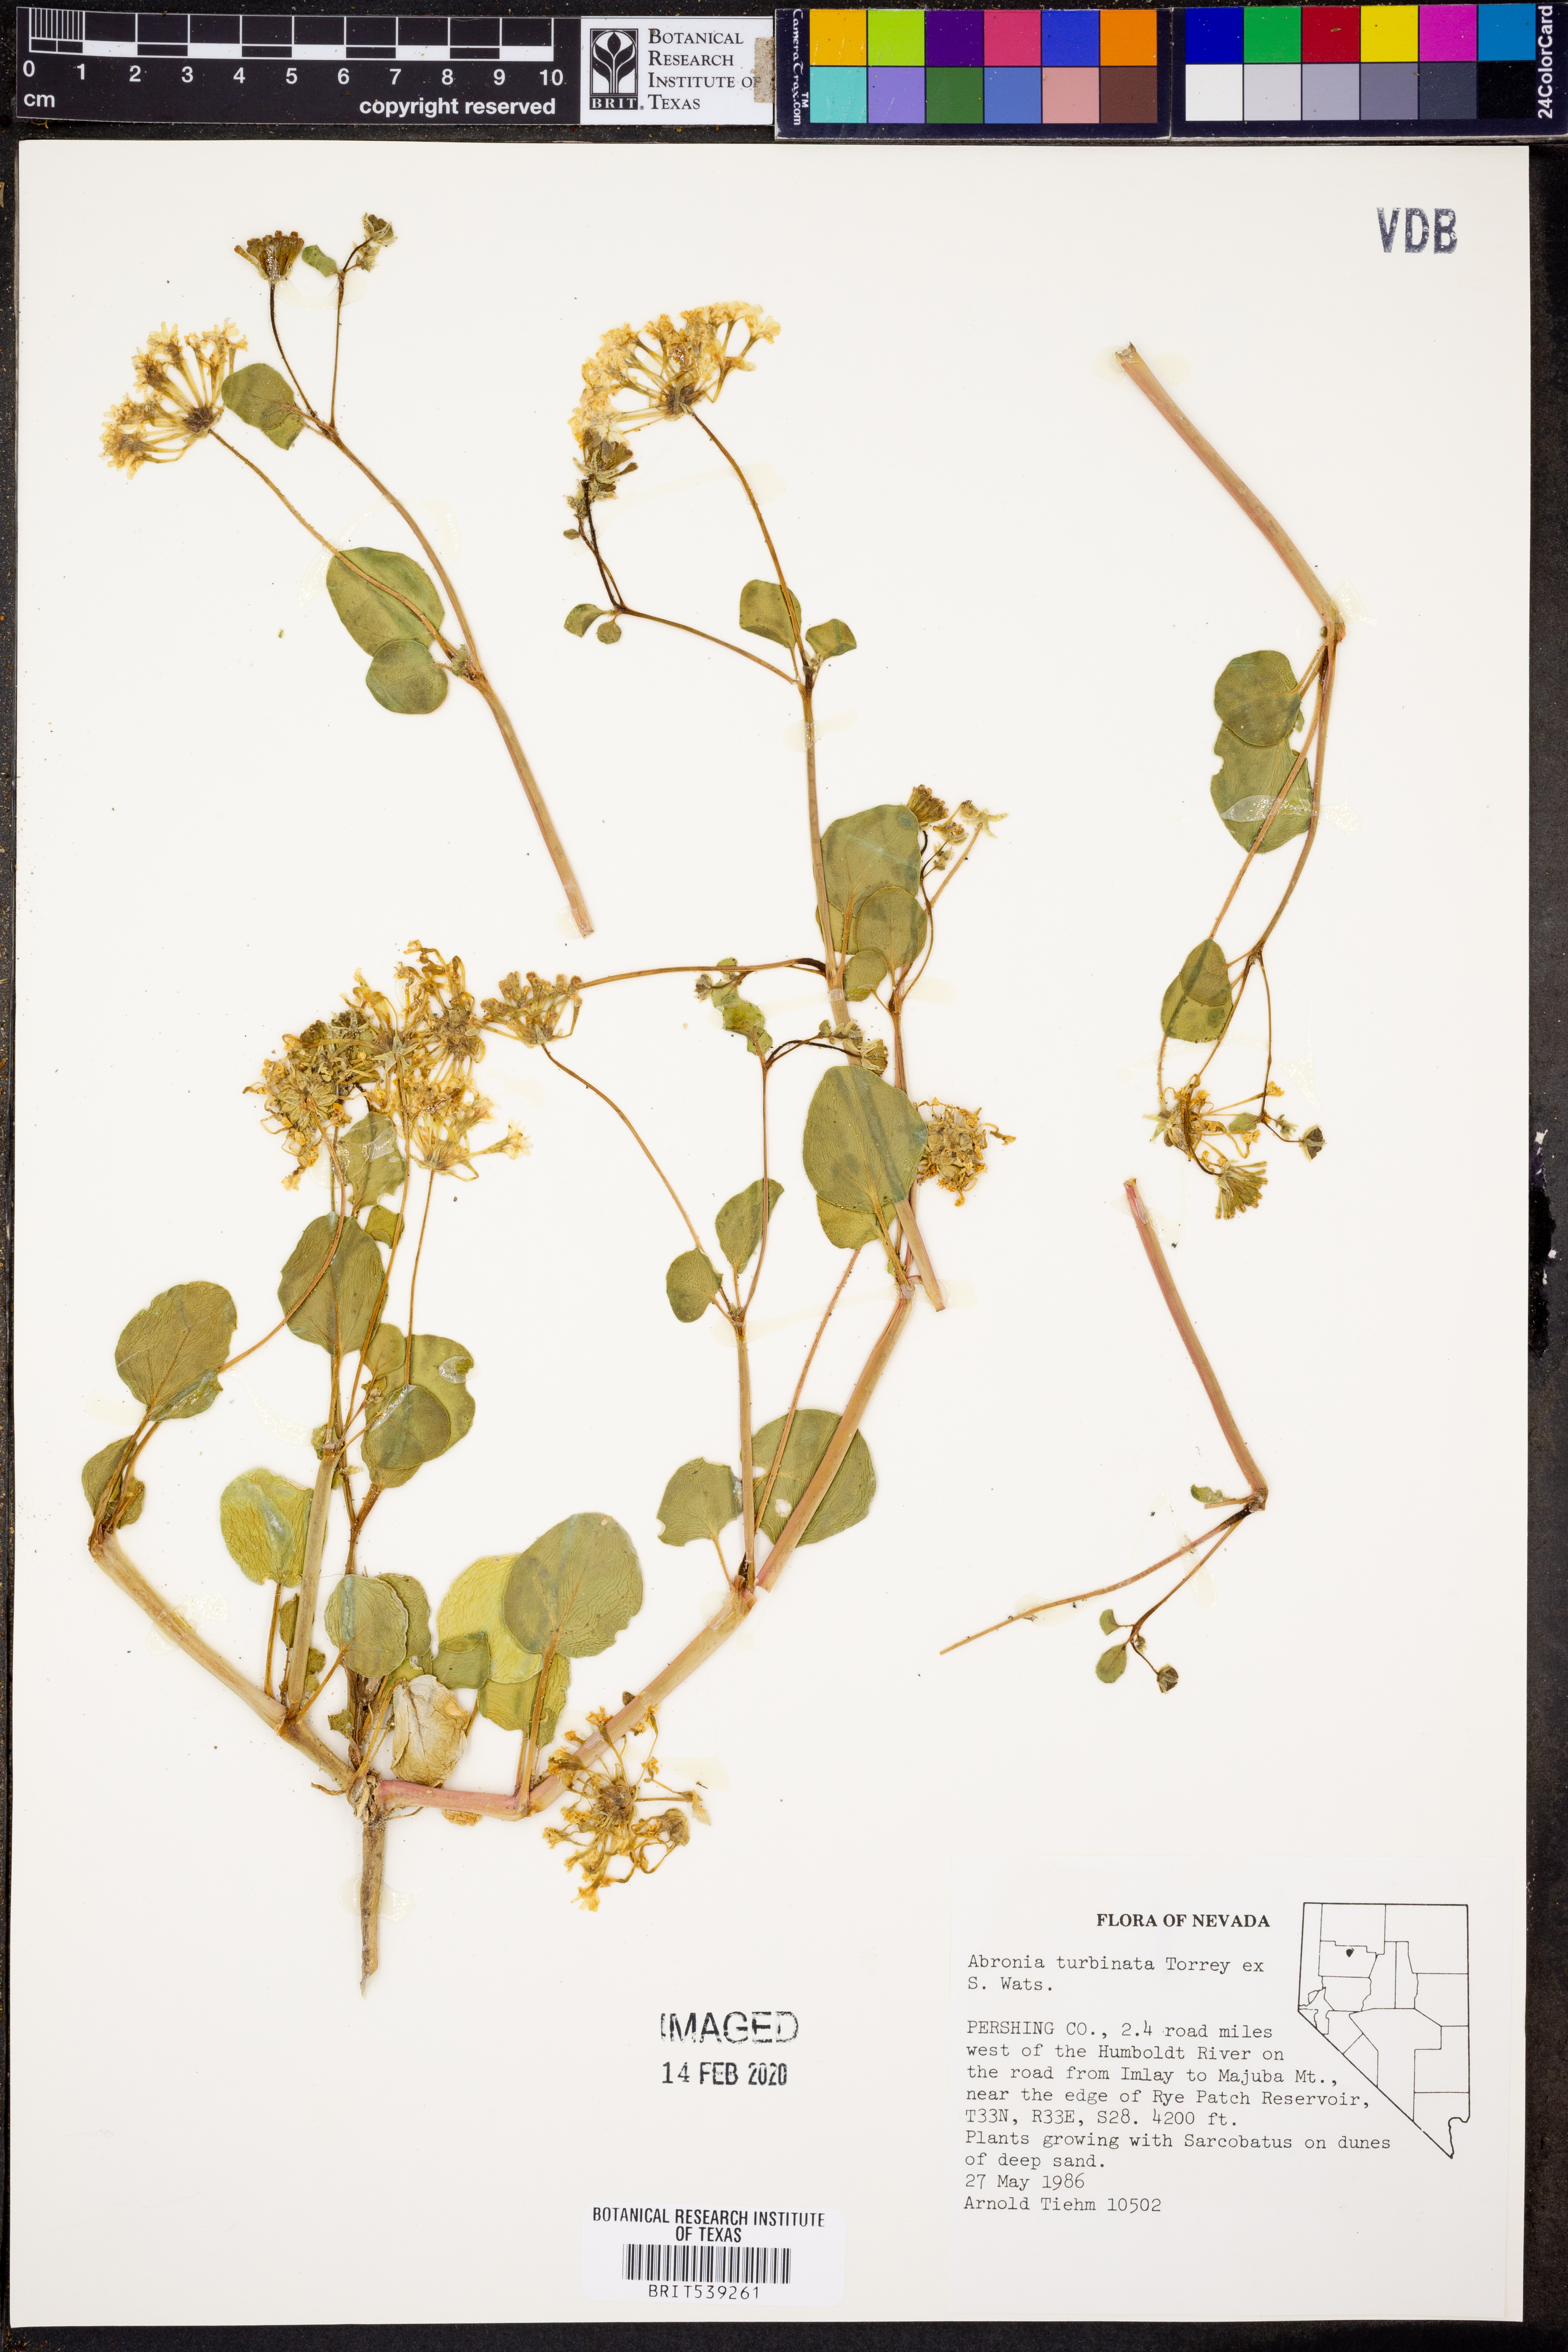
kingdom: Plantae
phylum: Tracheophyta
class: Magnoliopsida
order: Caryophyllales
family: Nyctaginaceae
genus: Abronia
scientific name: Abronia turbinata
